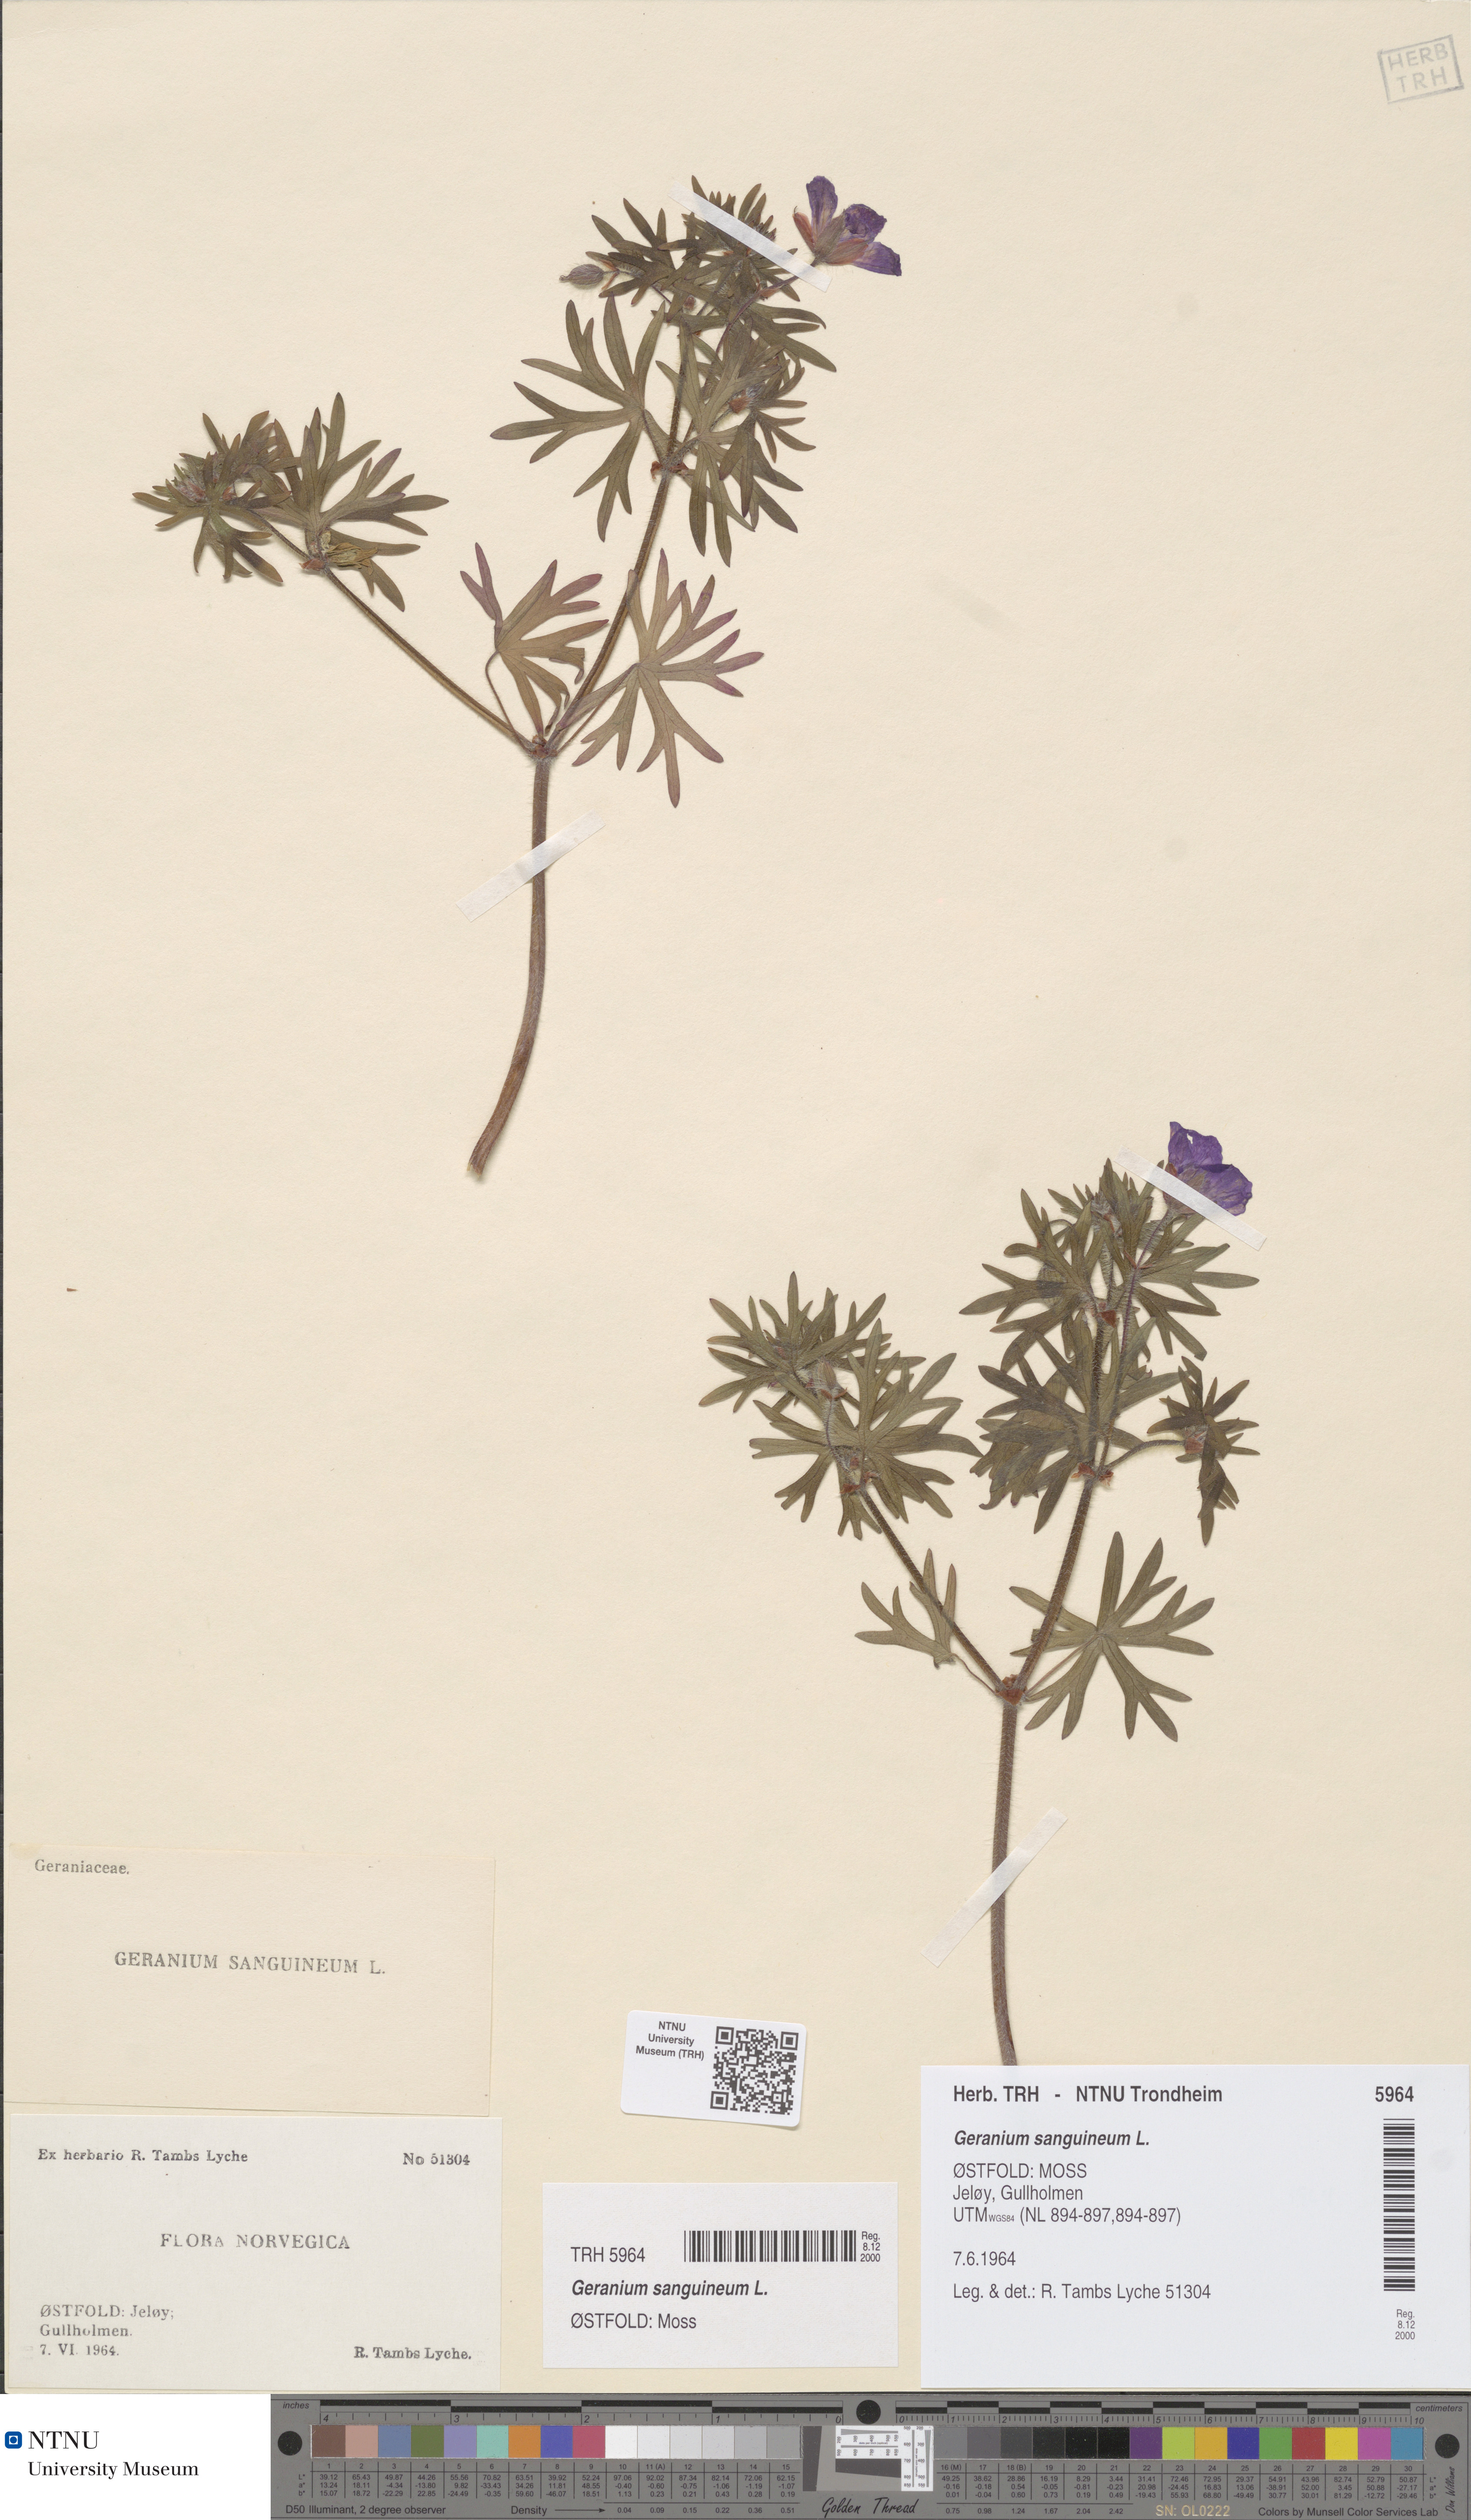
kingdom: Plantae
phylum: Tracheophyta
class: Magnoliopsida
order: Geraniales
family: Geraniaceae
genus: Geranium
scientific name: Geranium sanguineum
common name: Bloody crane's-bill
